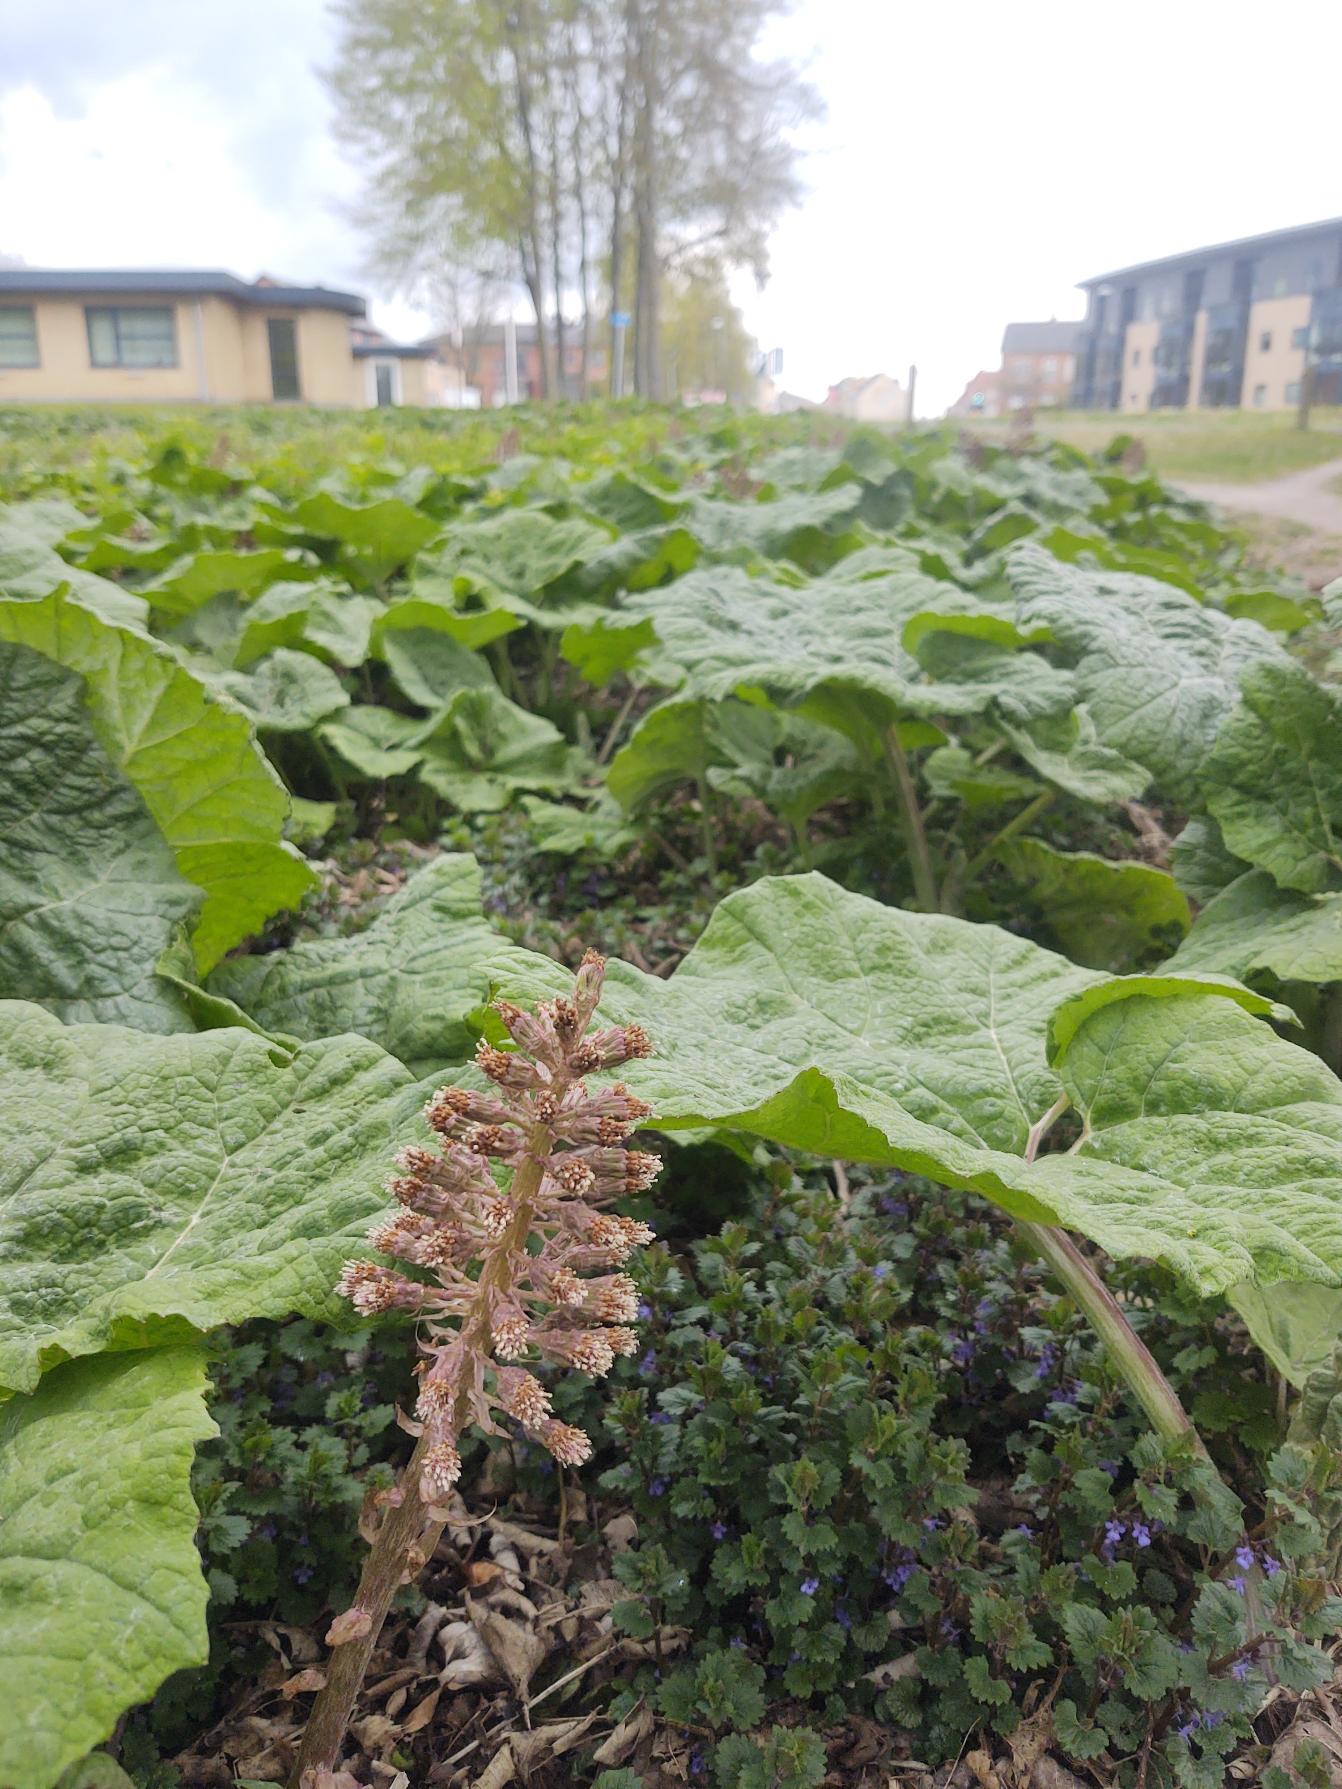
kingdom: Plantae
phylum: Tracheophyta
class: Magnoliopsida
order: Asterales
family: Asteraceae
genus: Petasites
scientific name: Petasites hybridus
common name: Rød hestehov
